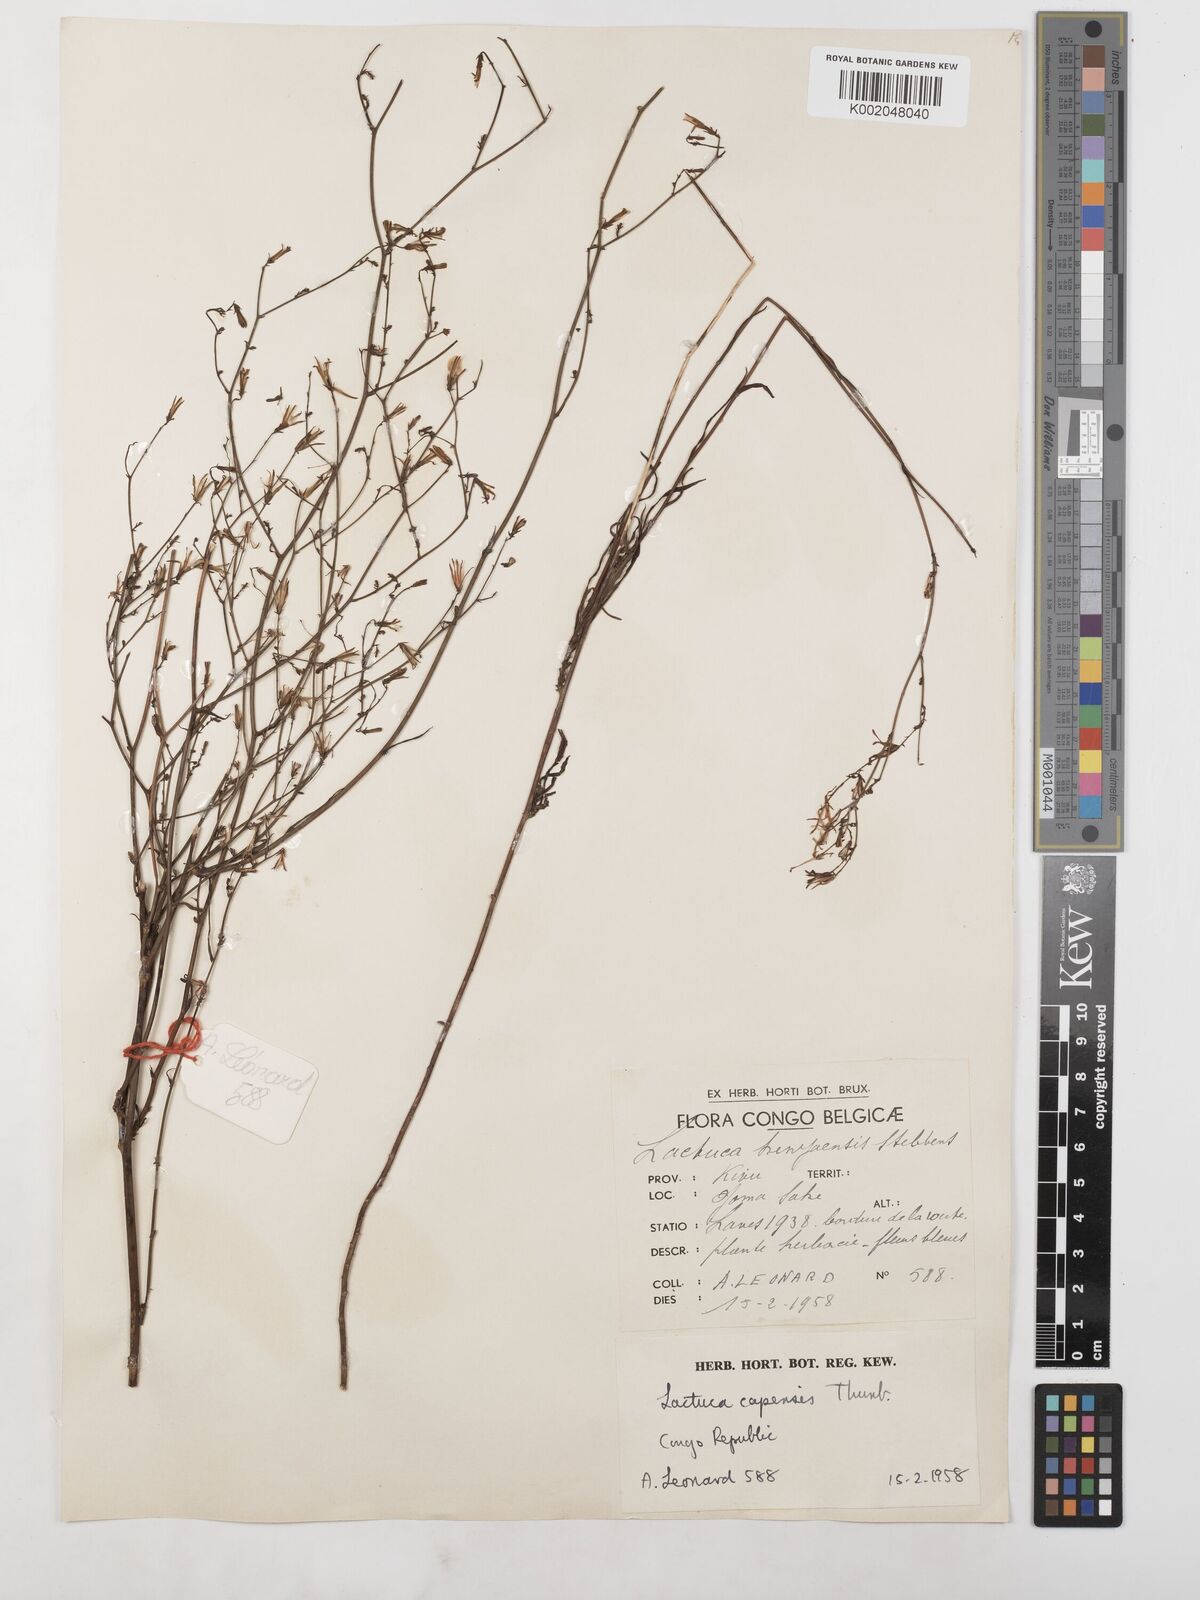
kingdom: Plantae
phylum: Tracheophyta
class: Magnoliopsida
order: Asterales
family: Asteraceae
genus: Lactuca
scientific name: Lactuca inermis
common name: Wild lettuce
